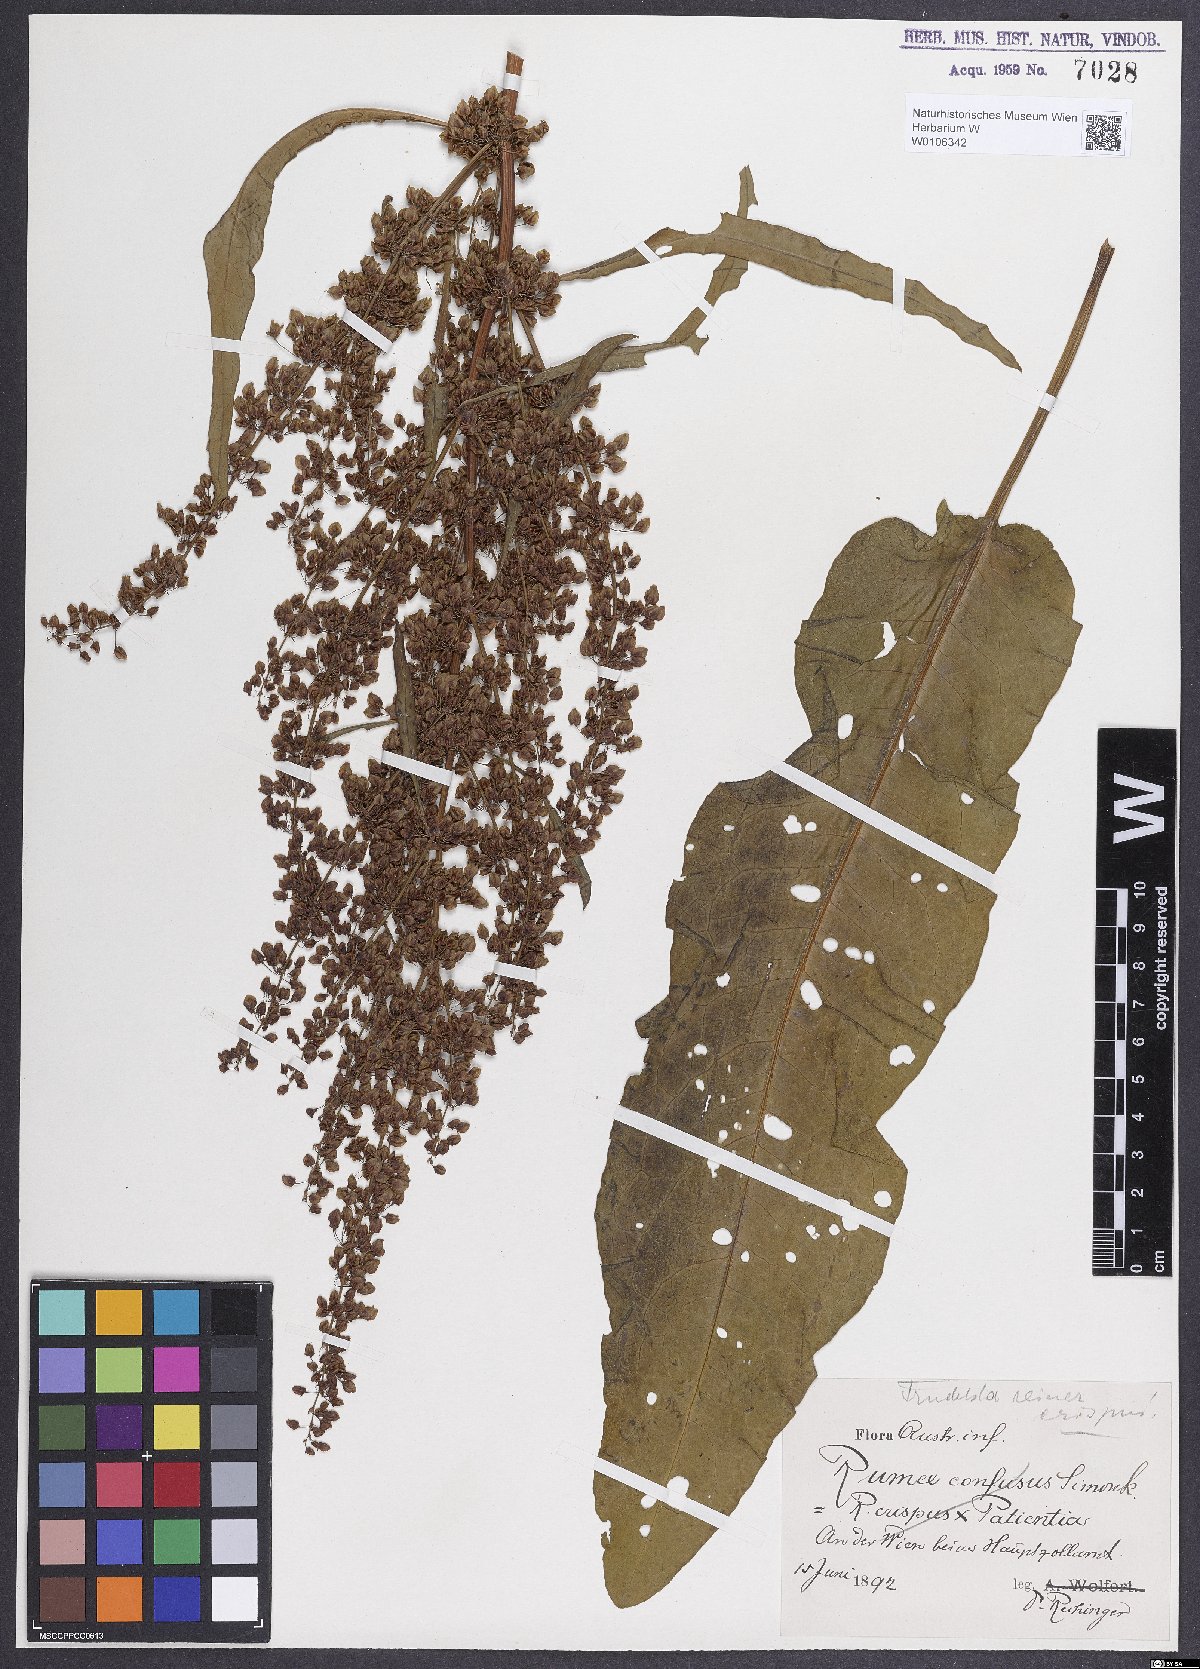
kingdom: Plantae
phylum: Tracheophyta
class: Magnoliopsida
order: Caryophyllales
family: Polygonaceae
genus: Rumex
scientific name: Rumex crispus
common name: Curled dock
